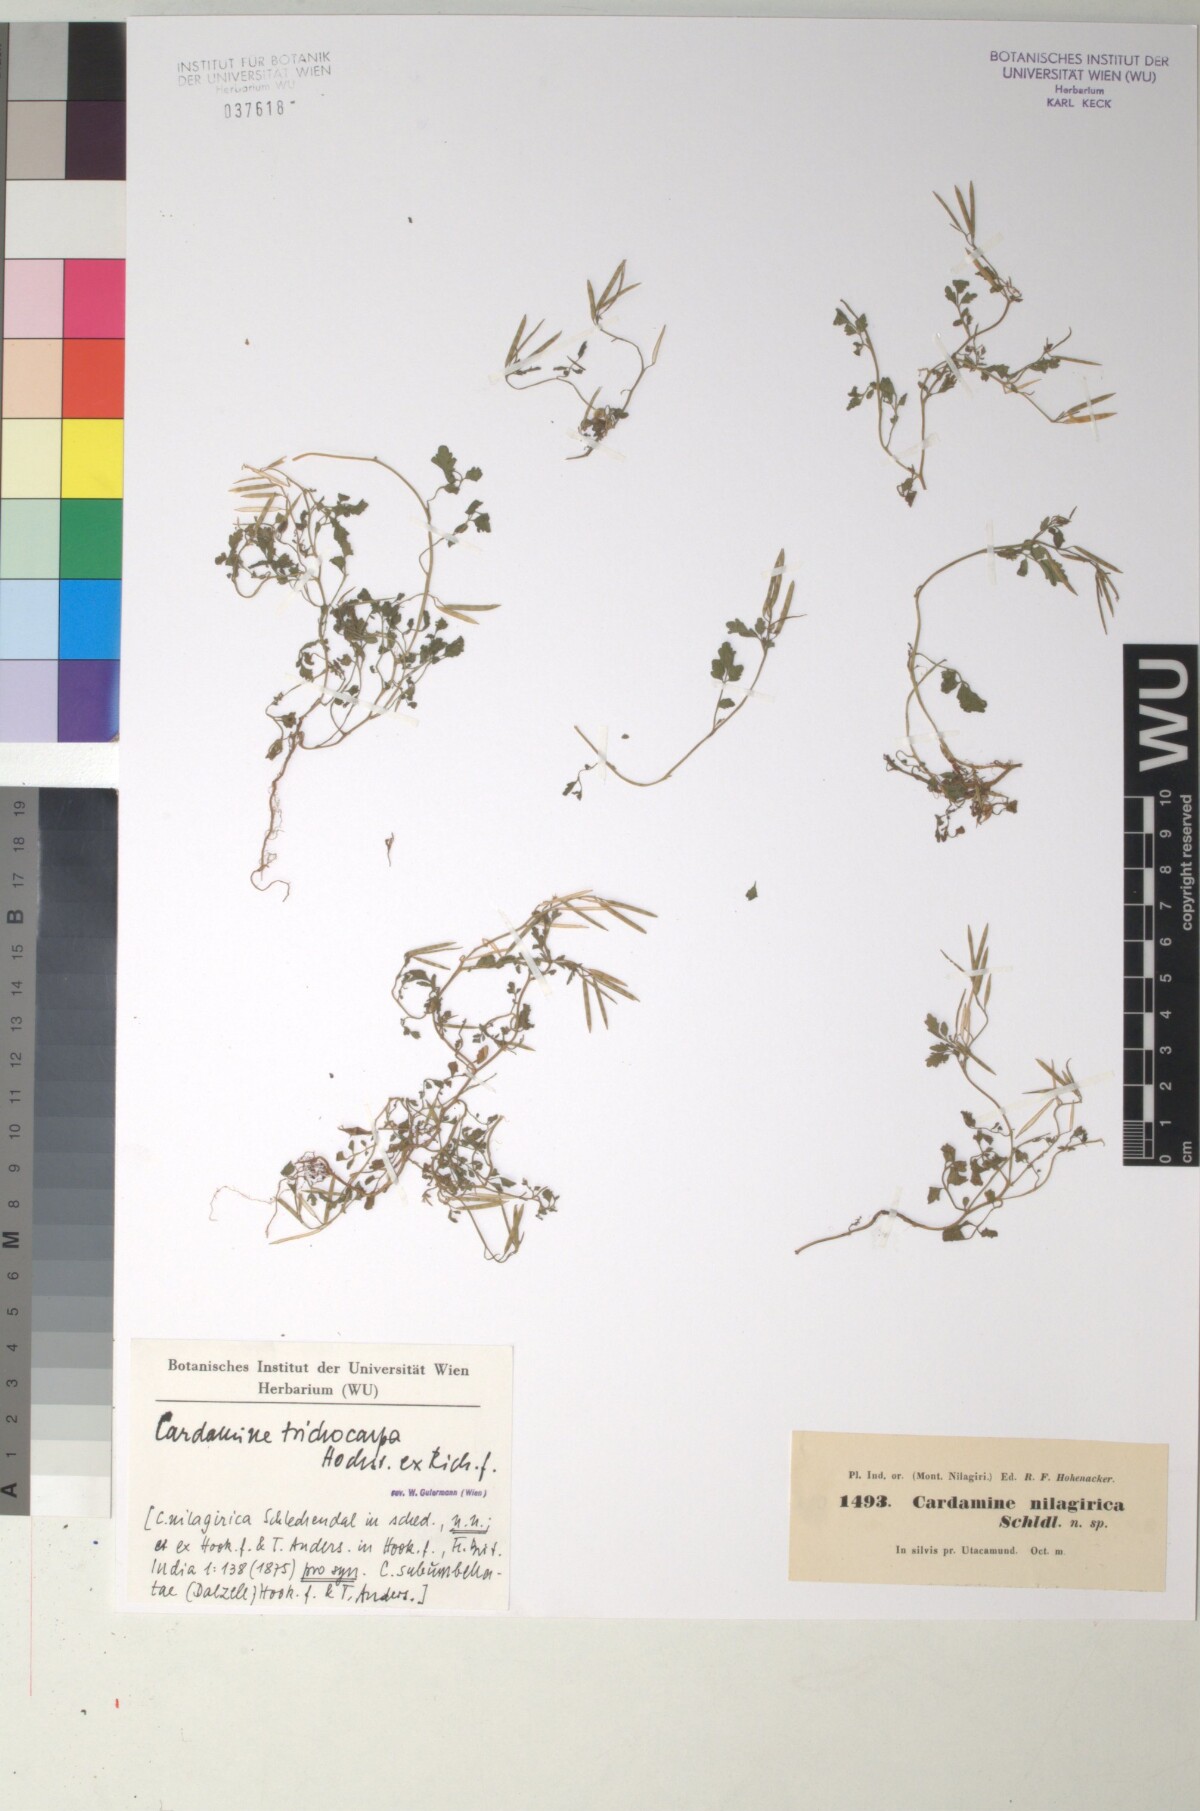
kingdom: Plantae
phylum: Tracheophyta
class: Magnoliopsida
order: Brassicales
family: Brassicaceae
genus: Cardamine
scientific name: Cardamine trichocarpa
